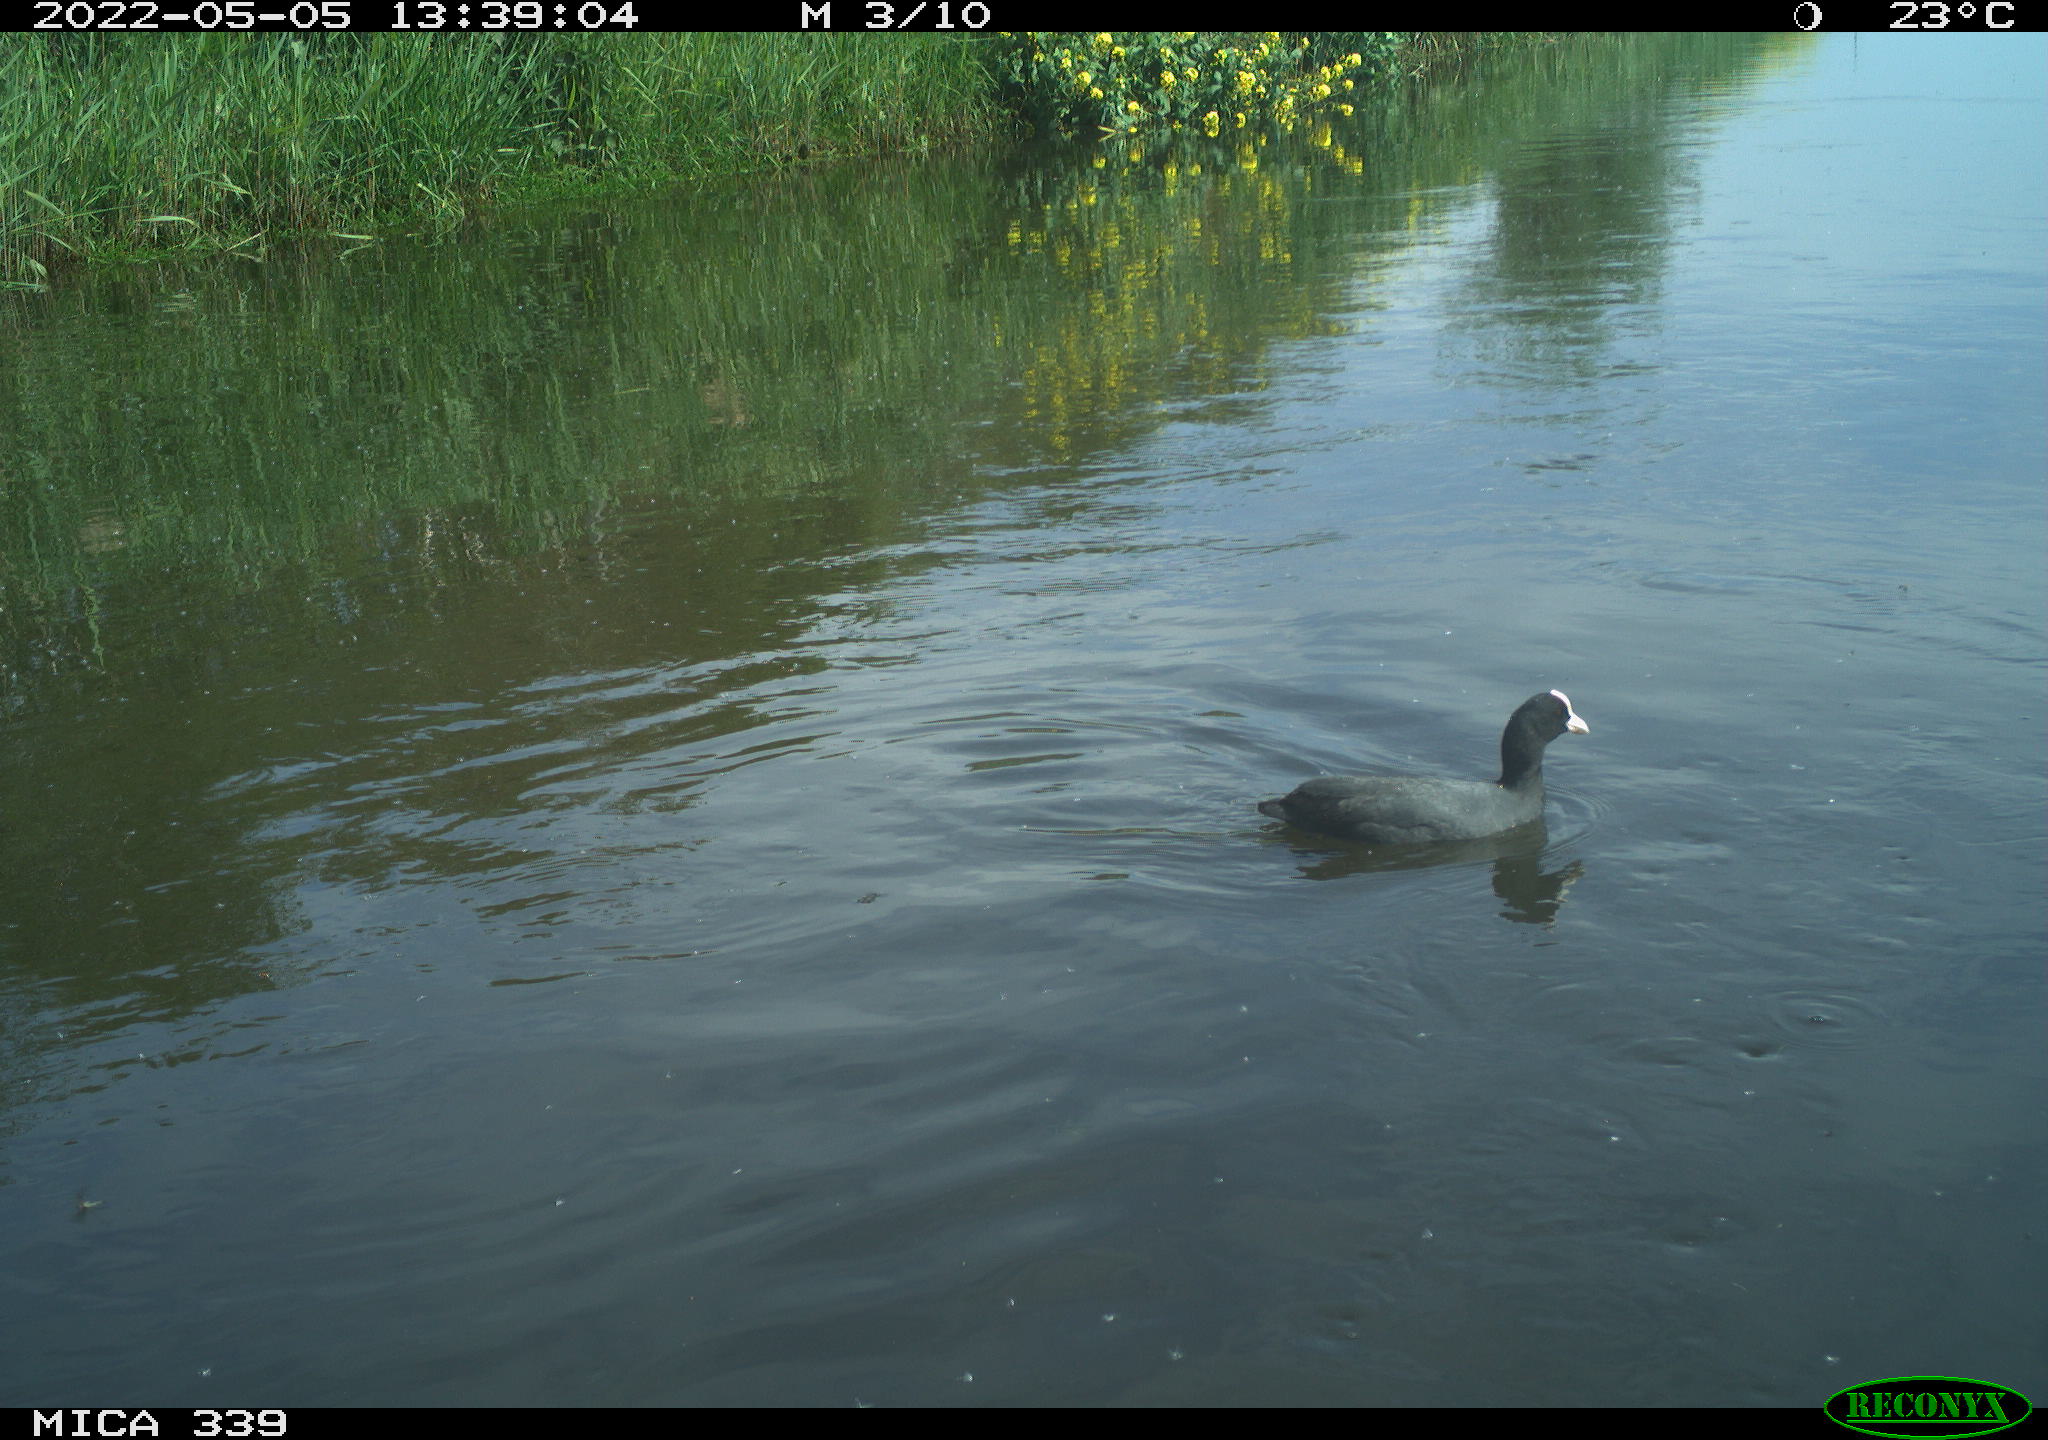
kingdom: Animalia
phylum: Chordata
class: Aves
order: Gruiformes
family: Rallidae
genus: Fulica
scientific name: Fulica atra
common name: Eurasian coot
